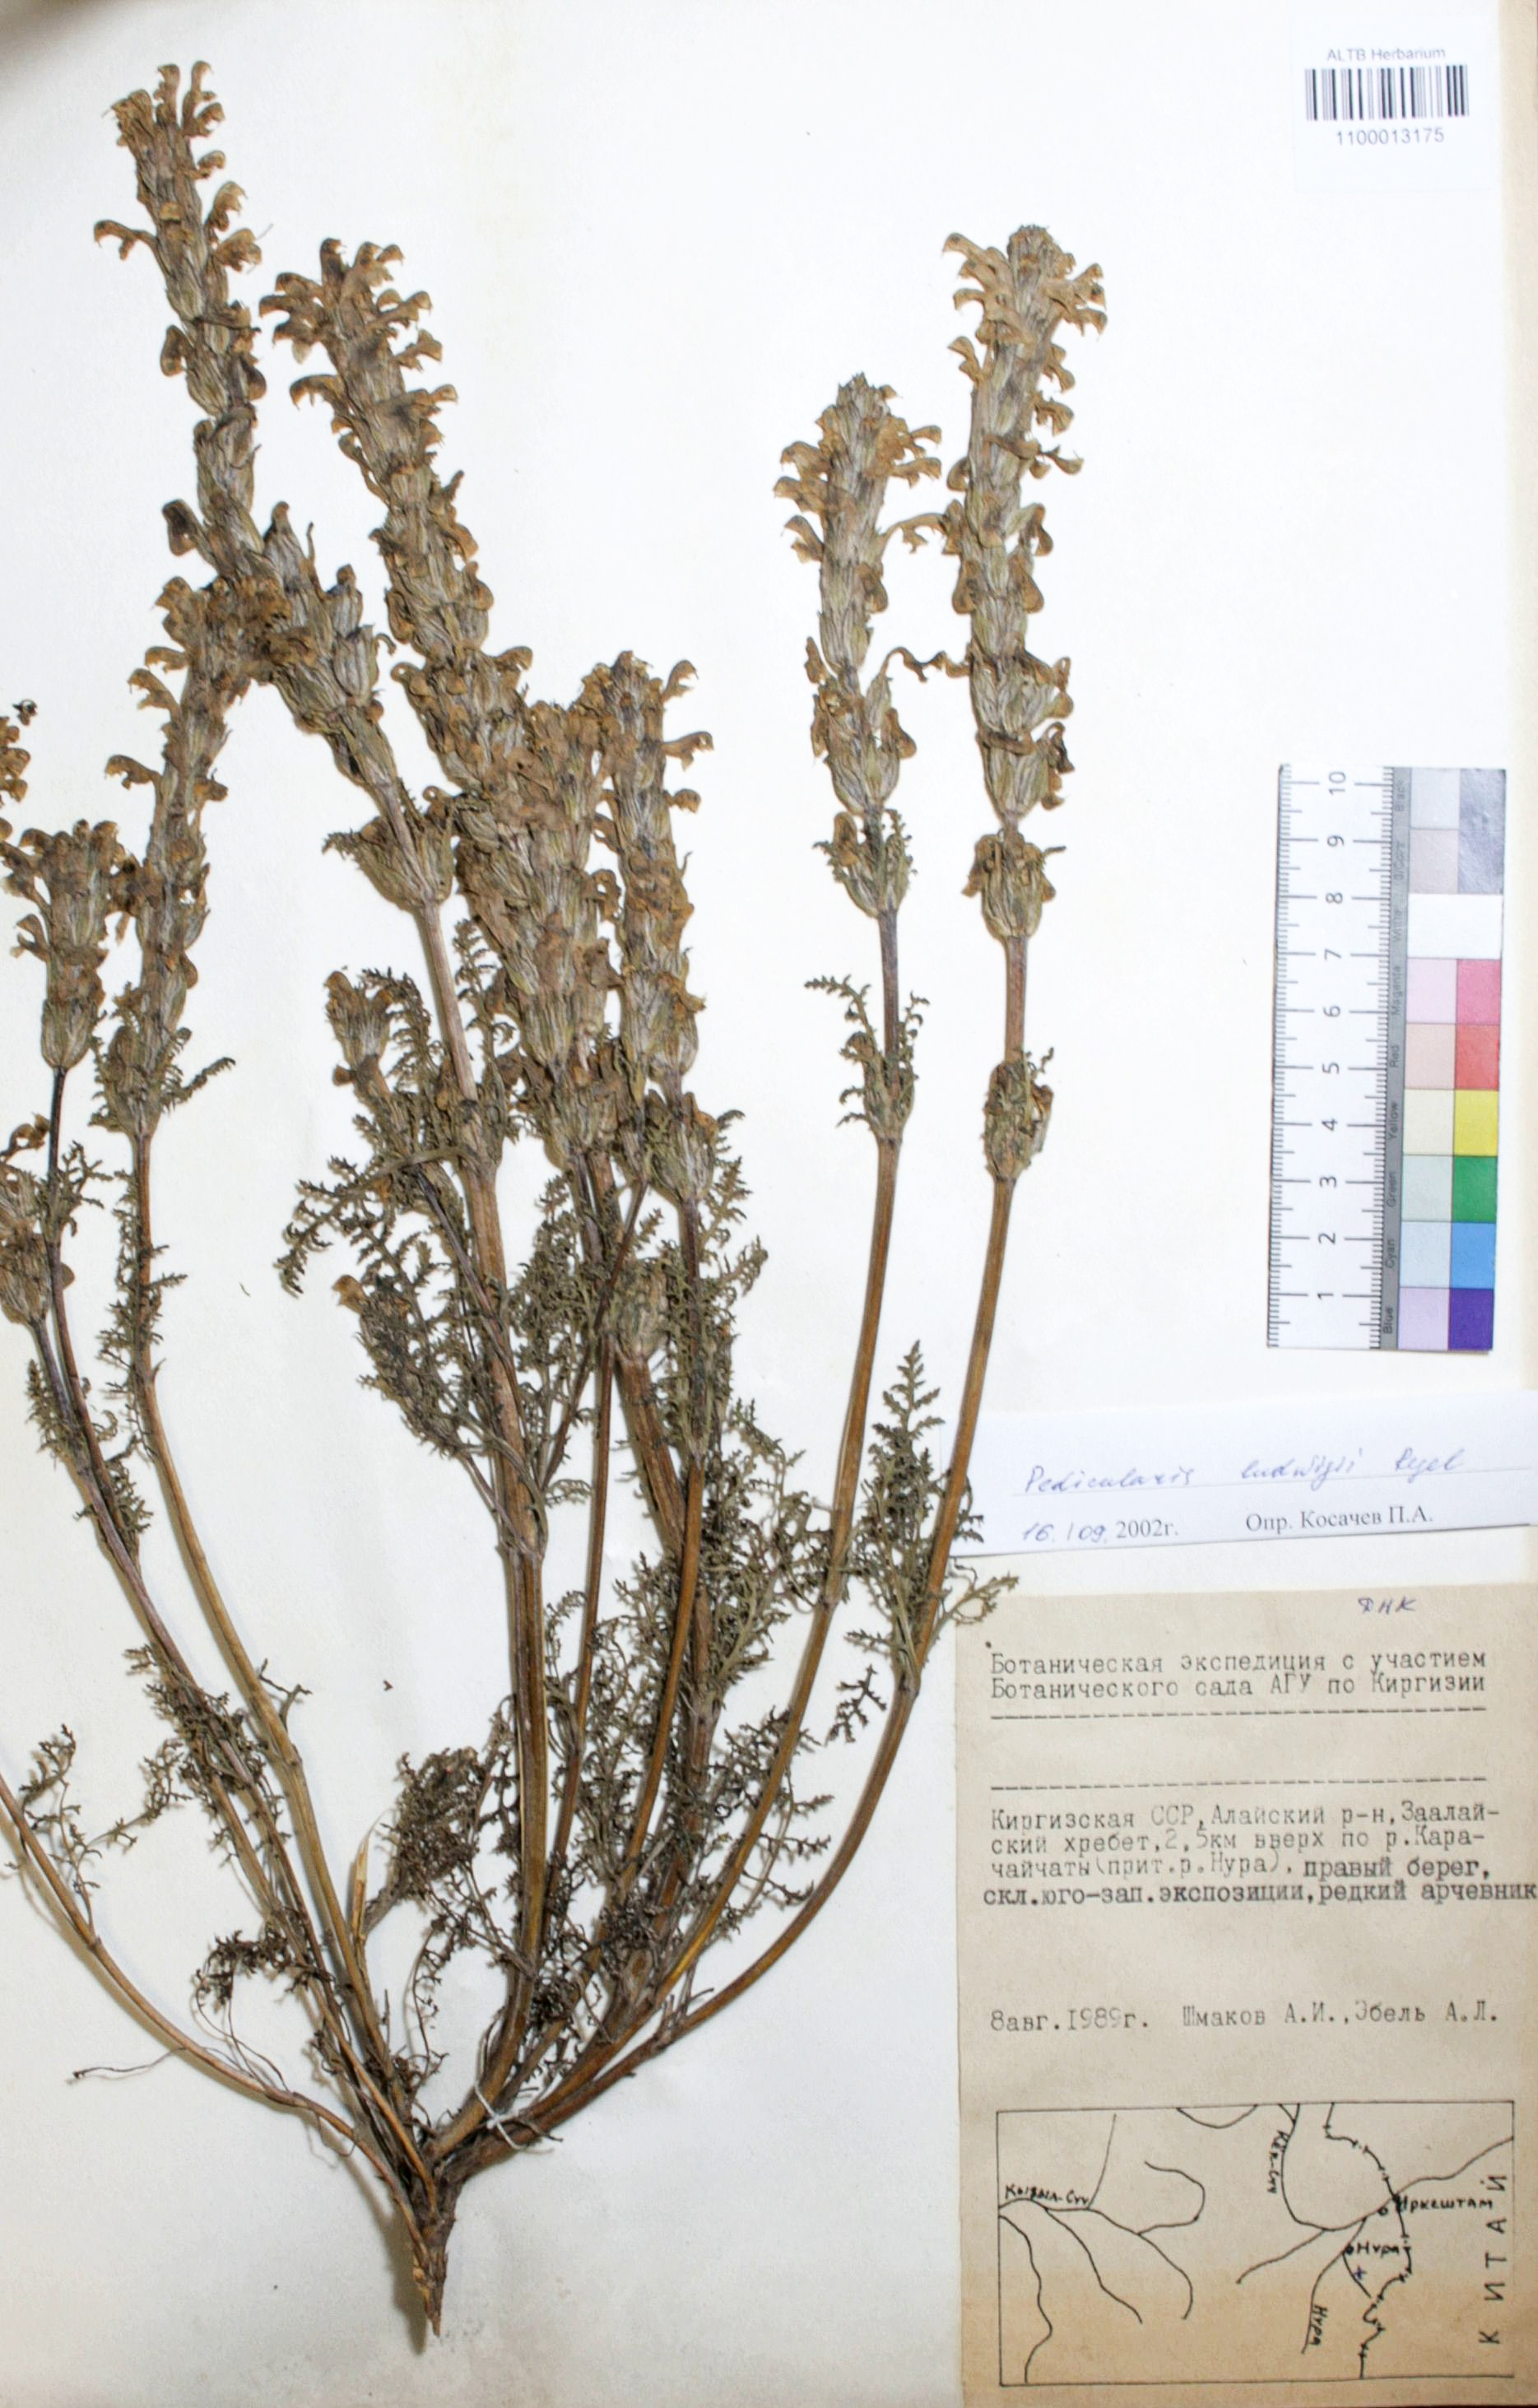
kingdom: Plantae
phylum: Tracheophyta
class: Magnoliopsida
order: Lamiales
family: Orobanchaceae
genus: Pedicularis
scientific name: Pedicularis ludwigii
